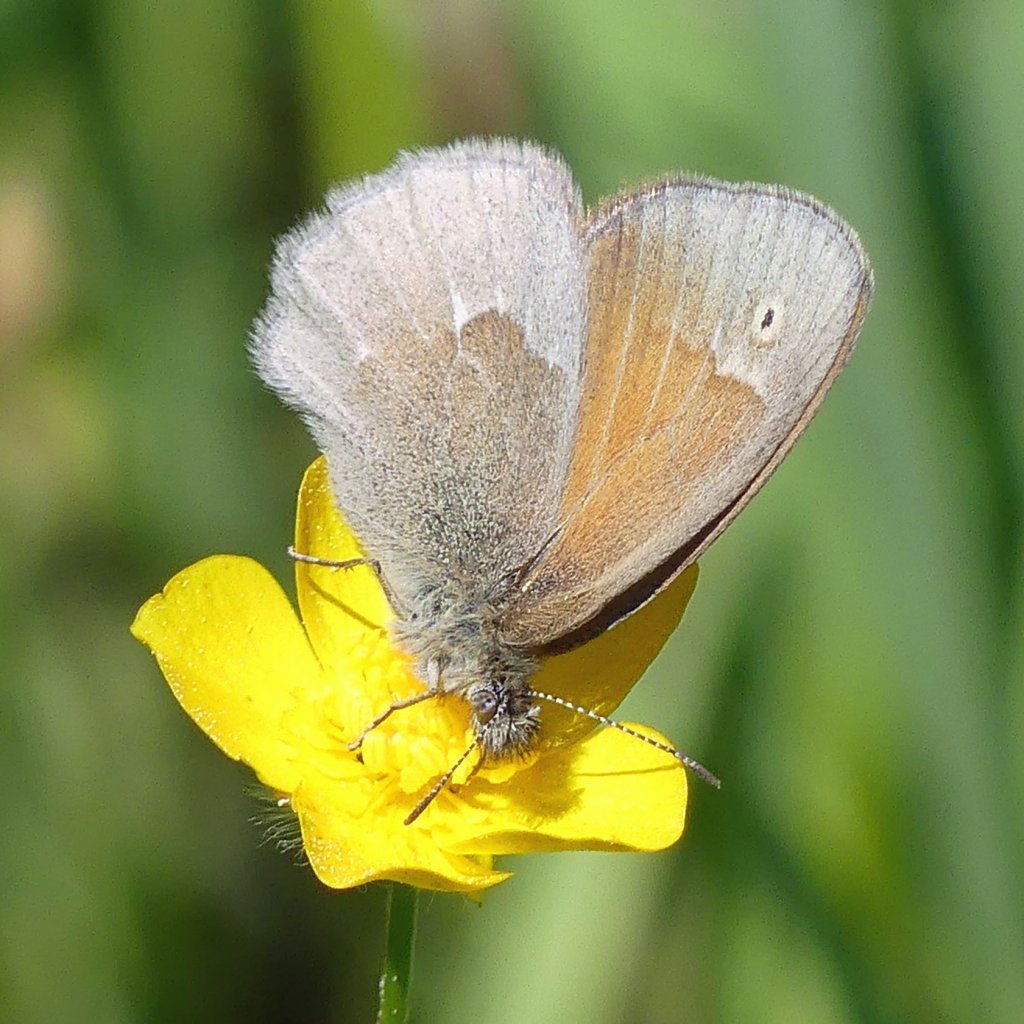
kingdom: Animalia
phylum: Arthropoda
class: Insecta
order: Lepidoptera
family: Nymphalidae
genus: Coenonympha
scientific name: Coenonympha tullia
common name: Large Heath
